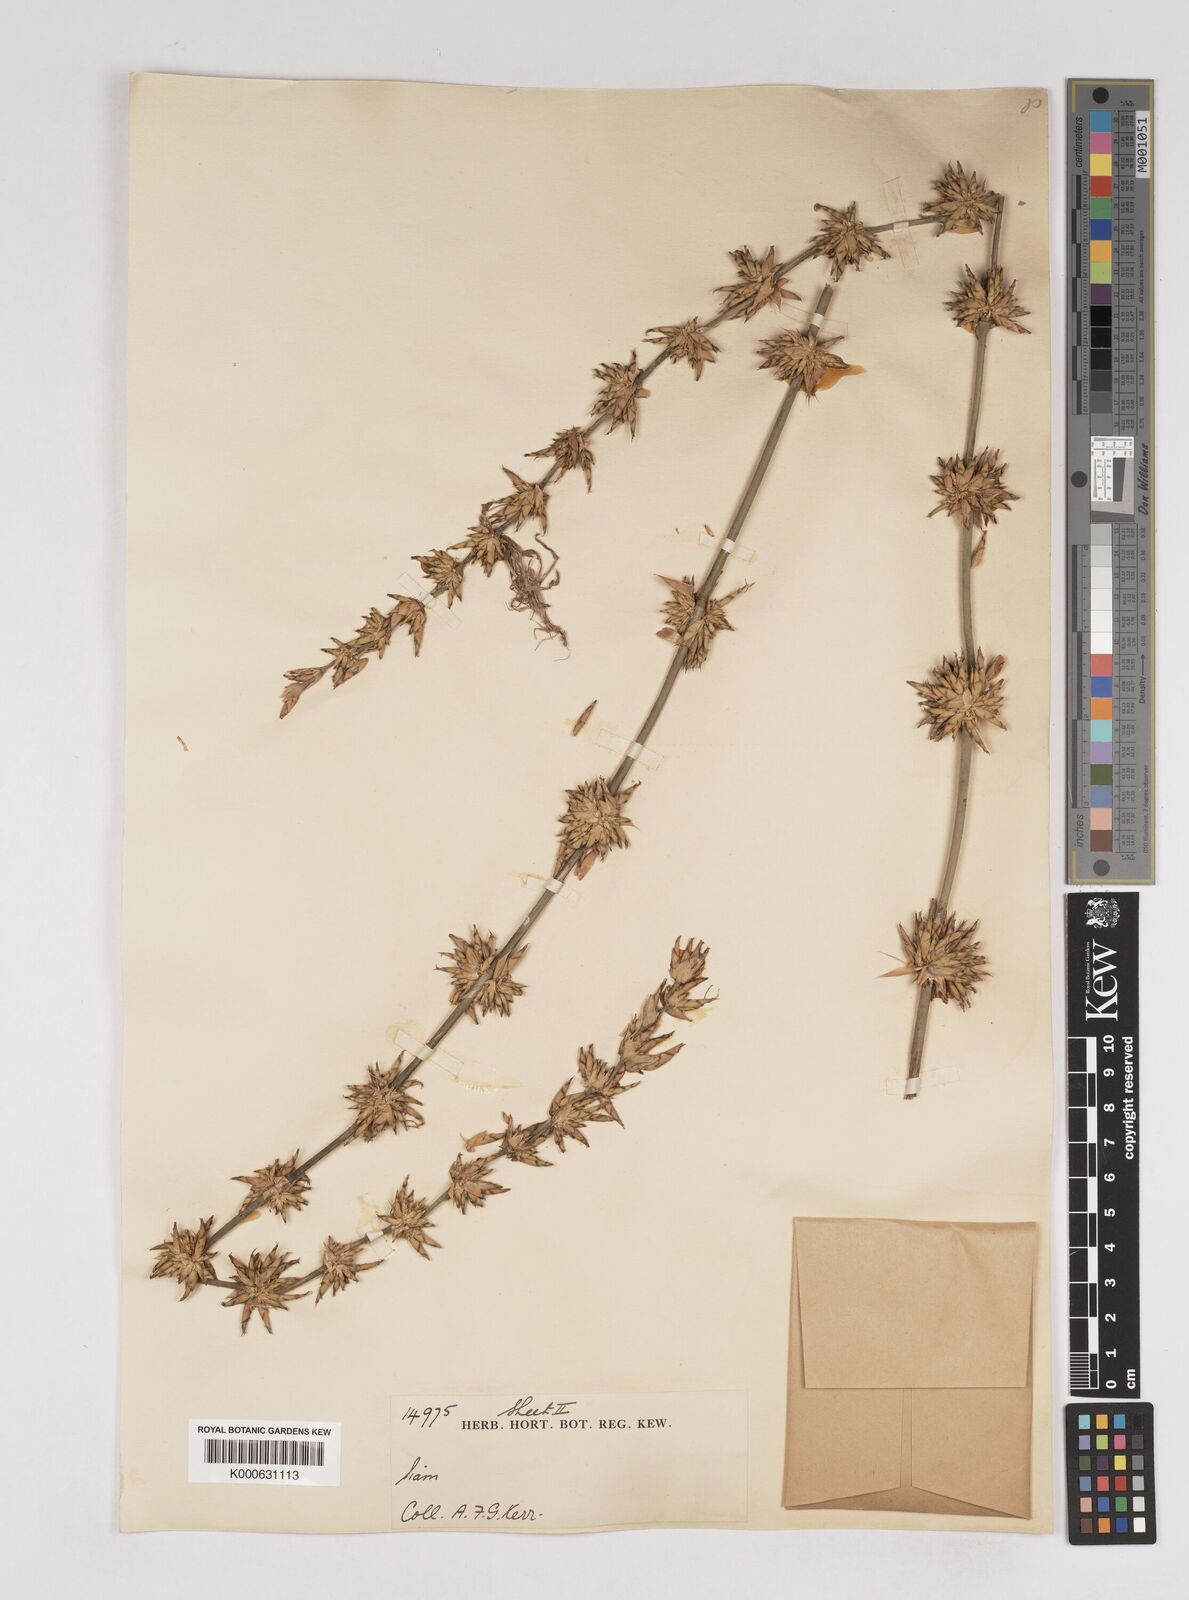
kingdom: Plantae
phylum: Tracheophyta
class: Liliopsida
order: Poales
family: Poaceae
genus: Gigantochloa
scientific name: Gigantochloa ligulata
